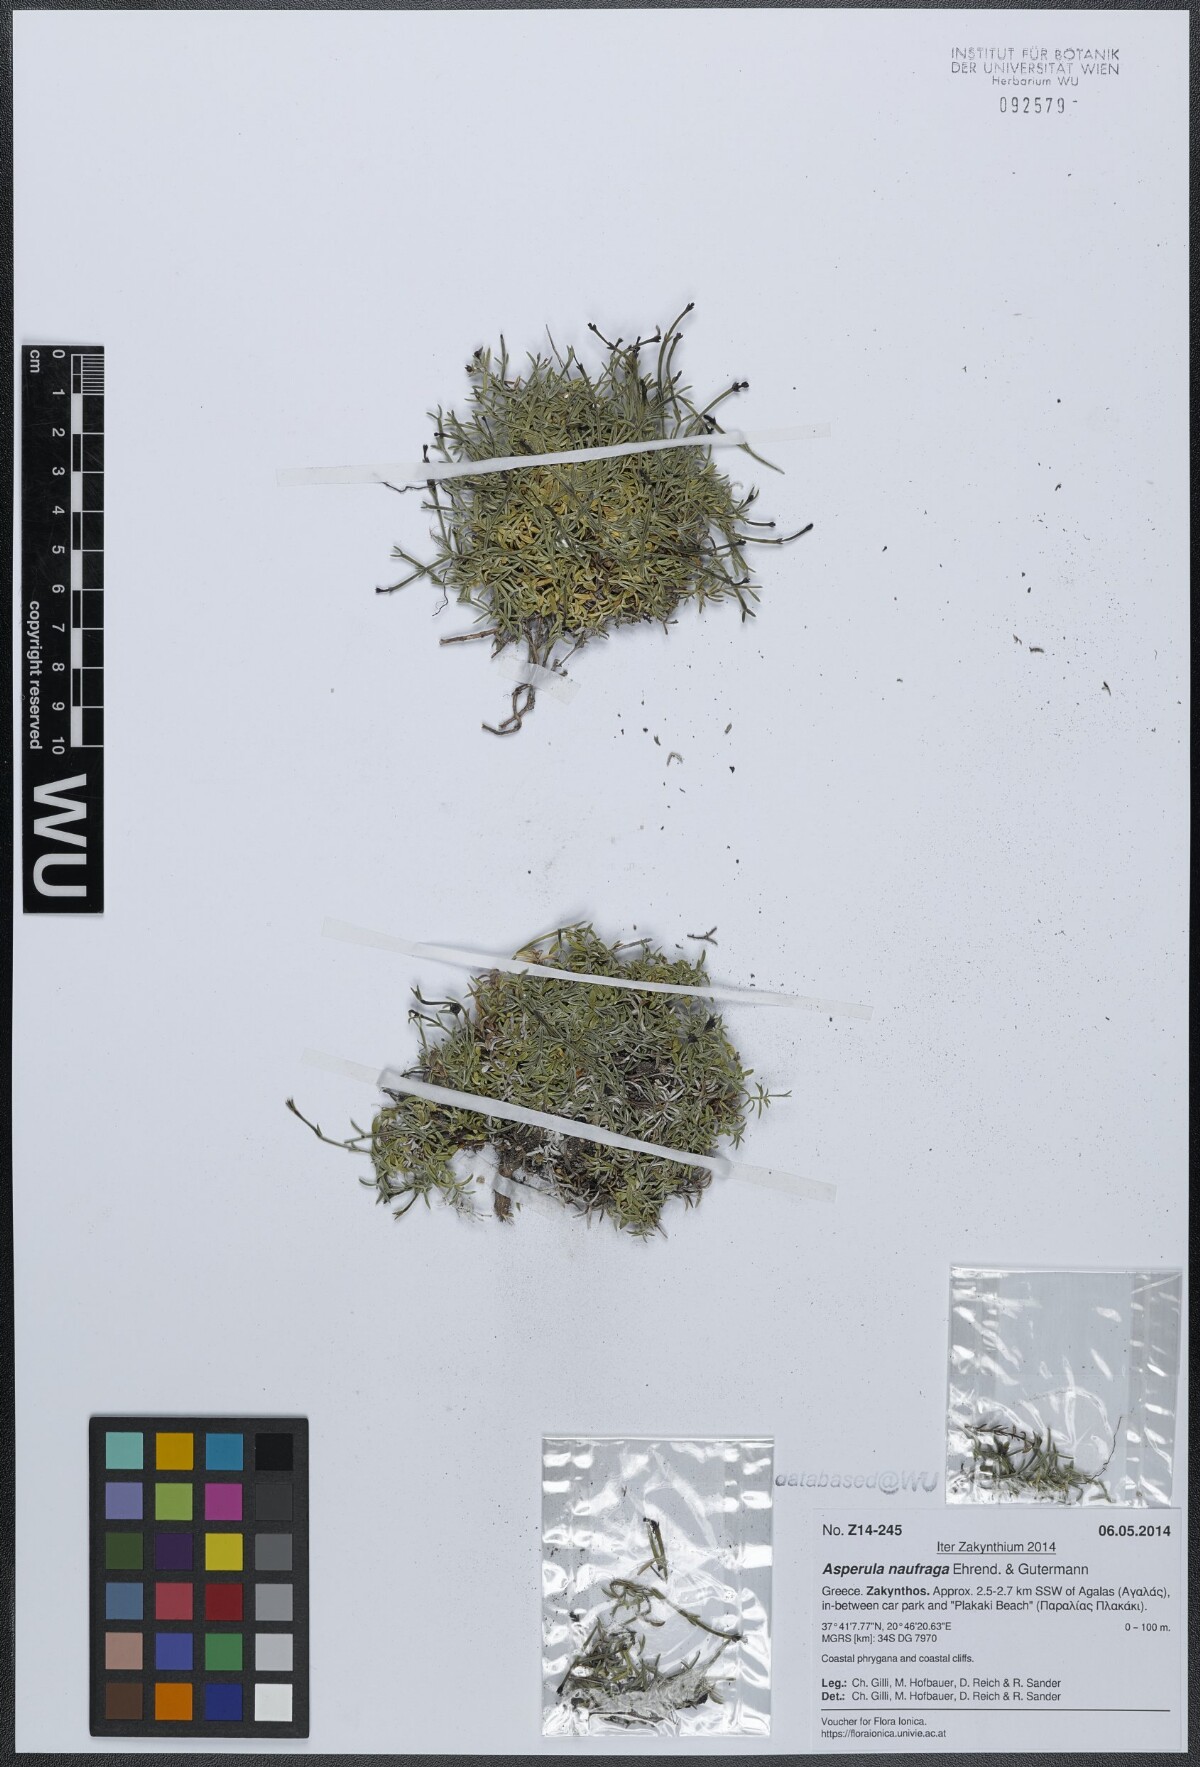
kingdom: Plantae
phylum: Tracheophyta
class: Magnoliopsida
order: Gentianales
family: Rubiaceae
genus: Cynanchica
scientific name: Cynanchica naufraga
